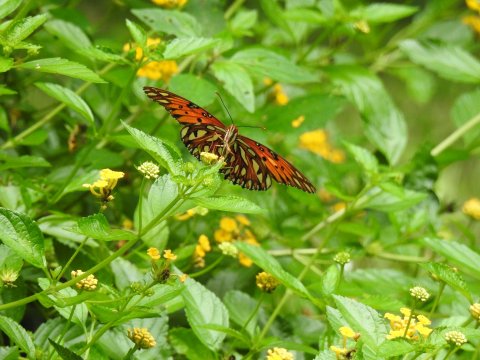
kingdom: Animalia
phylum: Arthropoda
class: Insecta
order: Lepidoptera
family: Nymphalidae
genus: Dione
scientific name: Dione vanillae
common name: Gulf Fritillary
